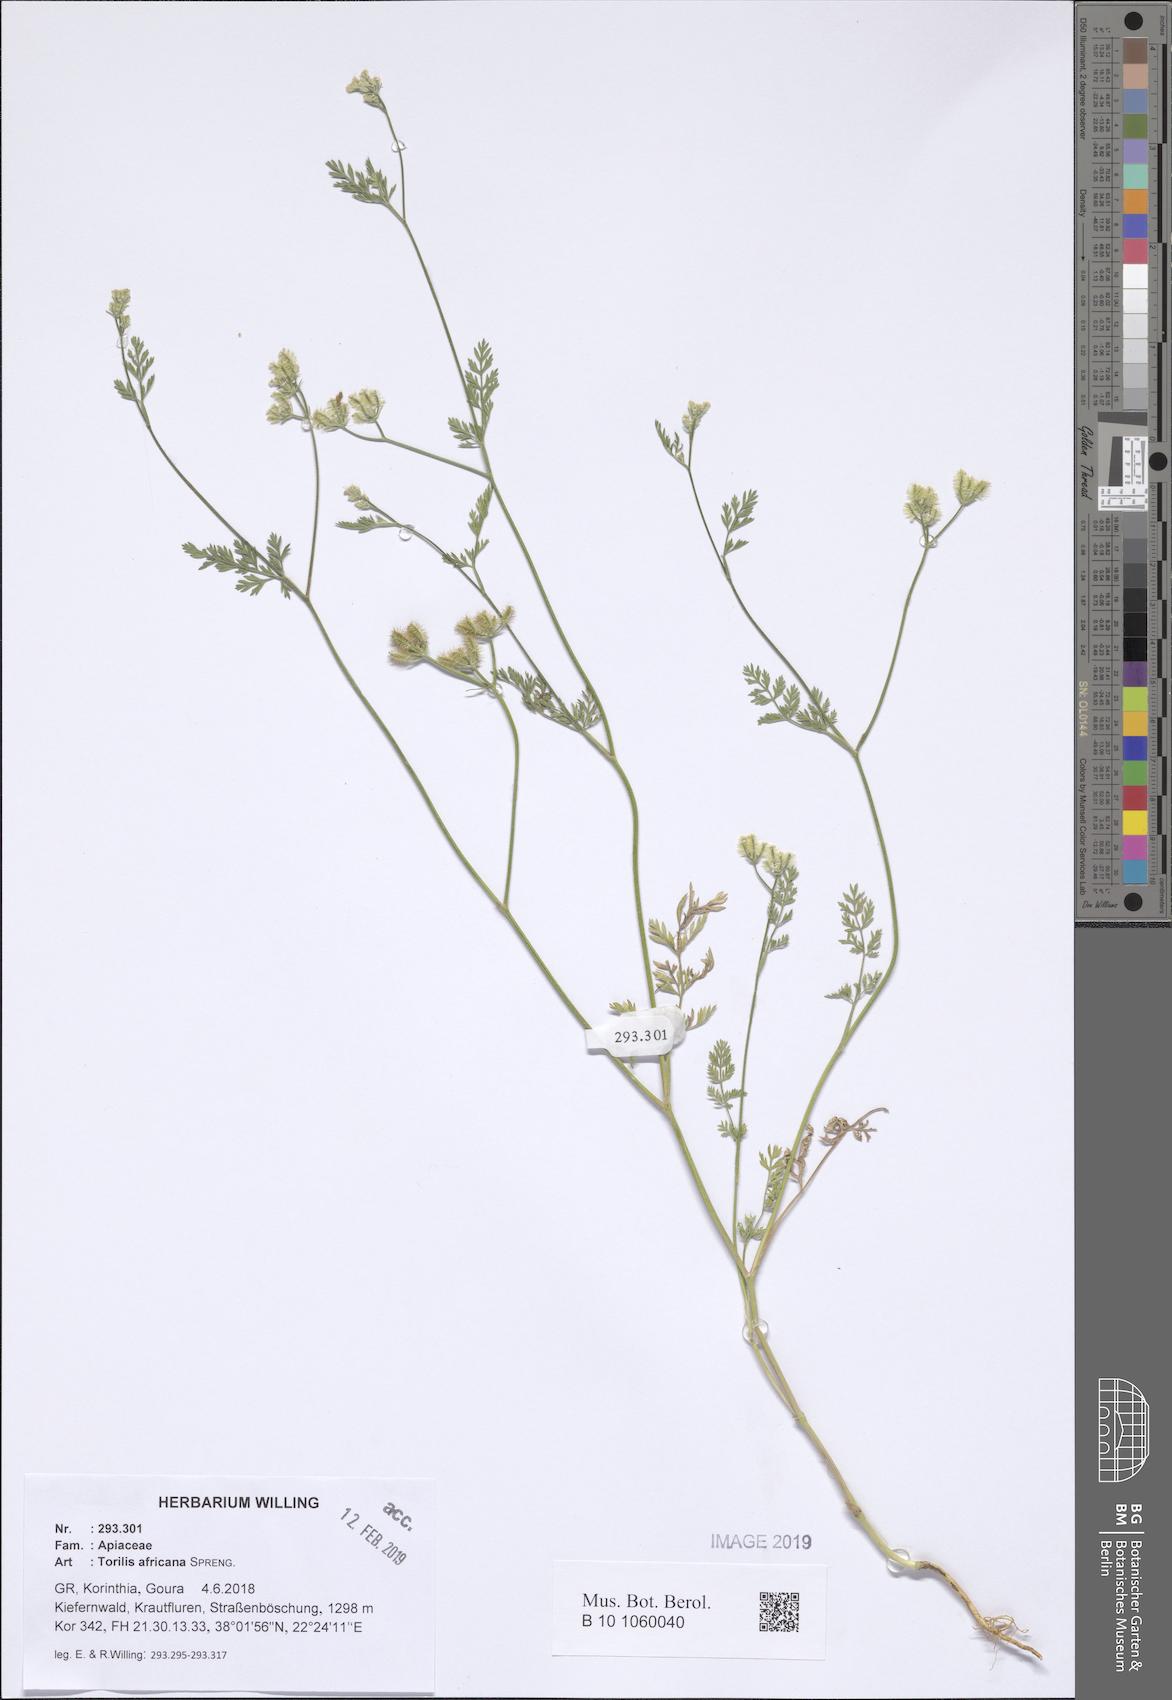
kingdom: Plantae
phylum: Tracheophyta
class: Magnoliopsida
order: Apiales
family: Apiaceae
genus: Torilis
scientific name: Torilis africana
